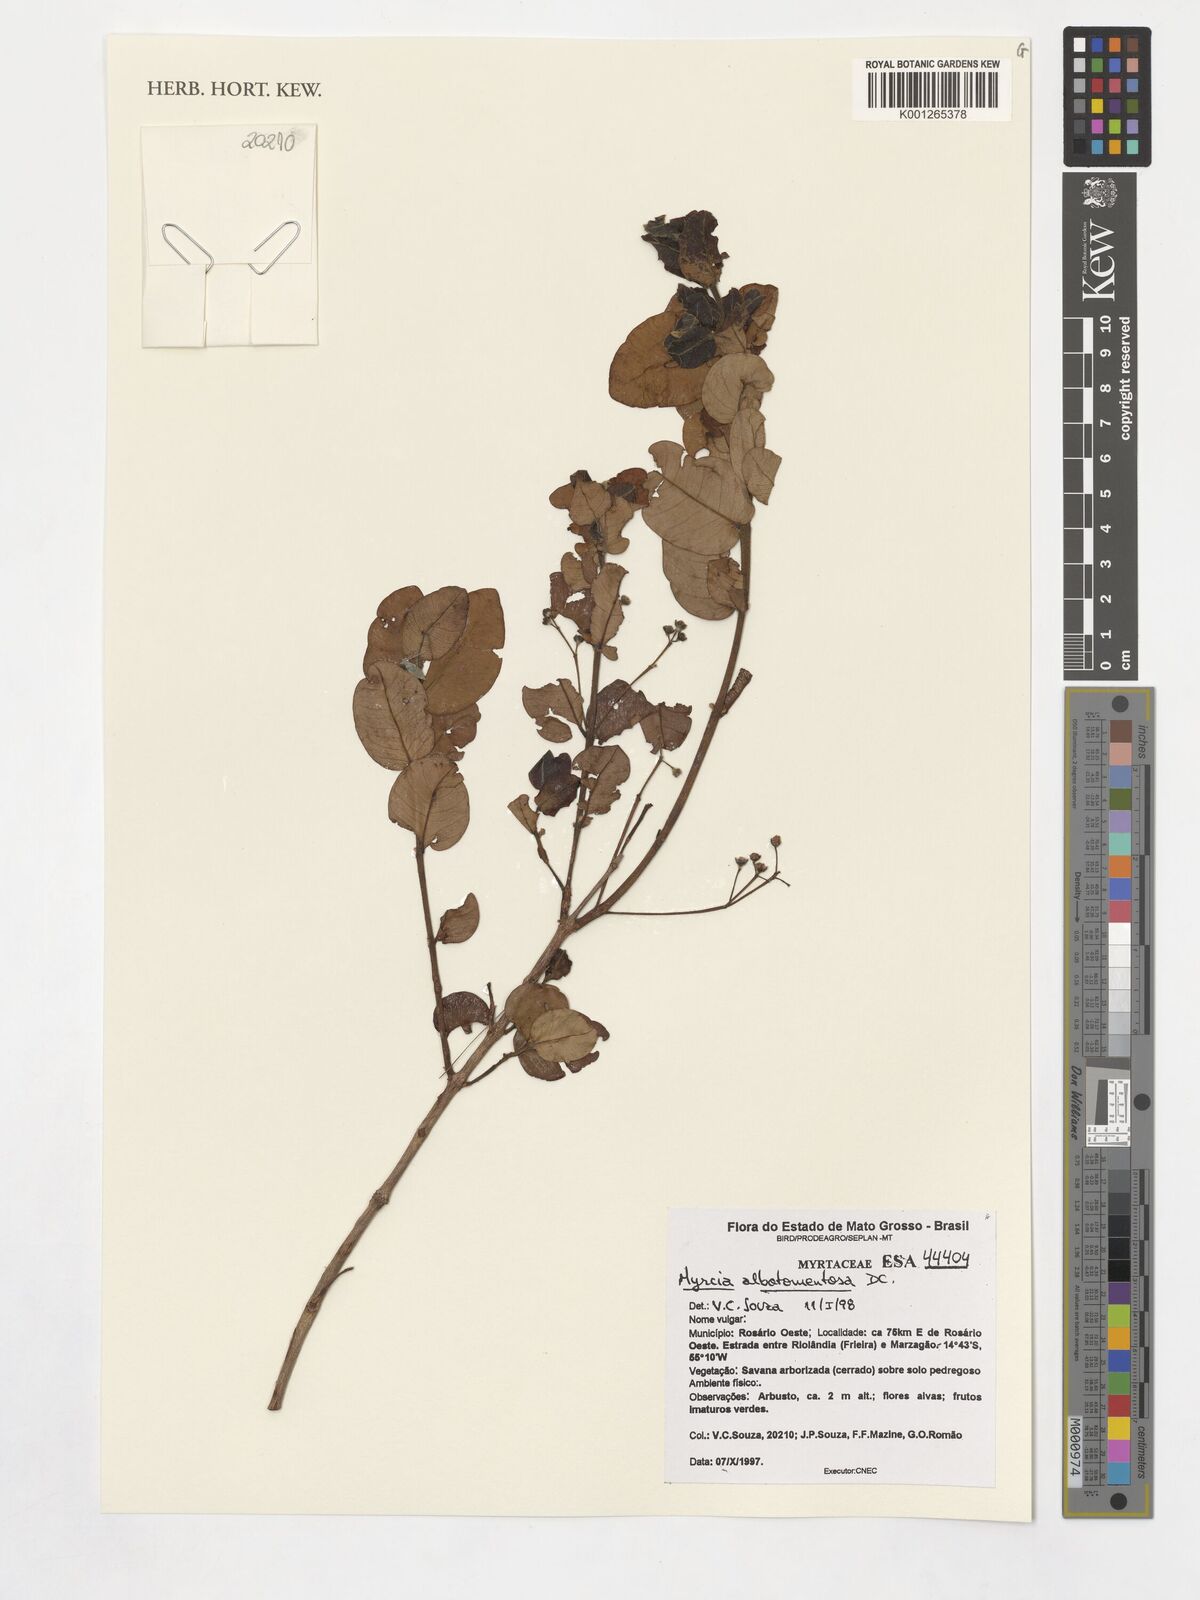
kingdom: Plantae
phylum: Tracheophyta
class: Magnoliopsida
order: Myrtales
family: Myrtaceae
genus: Myrcia
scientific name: Myrcia bella
